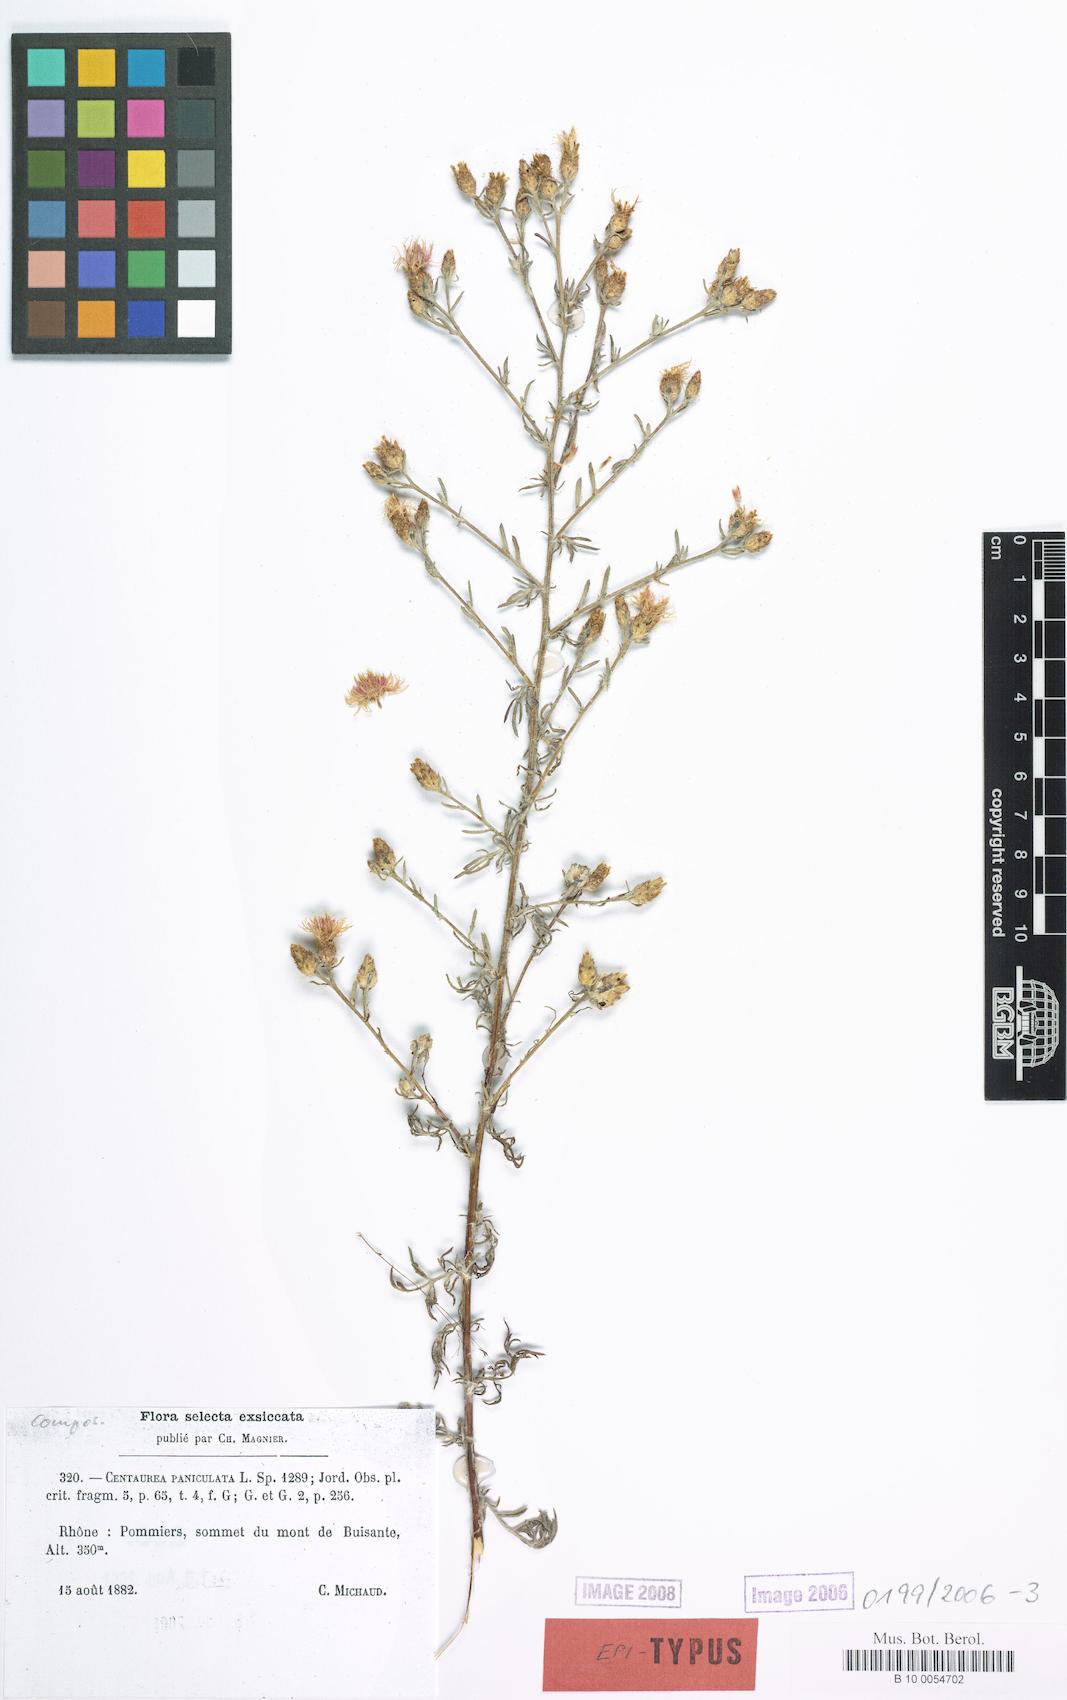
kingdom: Plantae
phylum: Tracheophyta
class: Magnoliopsida
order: Asterales
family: Asteraceae
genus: Centaurea
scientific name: Centaurea paniculata
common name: Jersey knapweed
